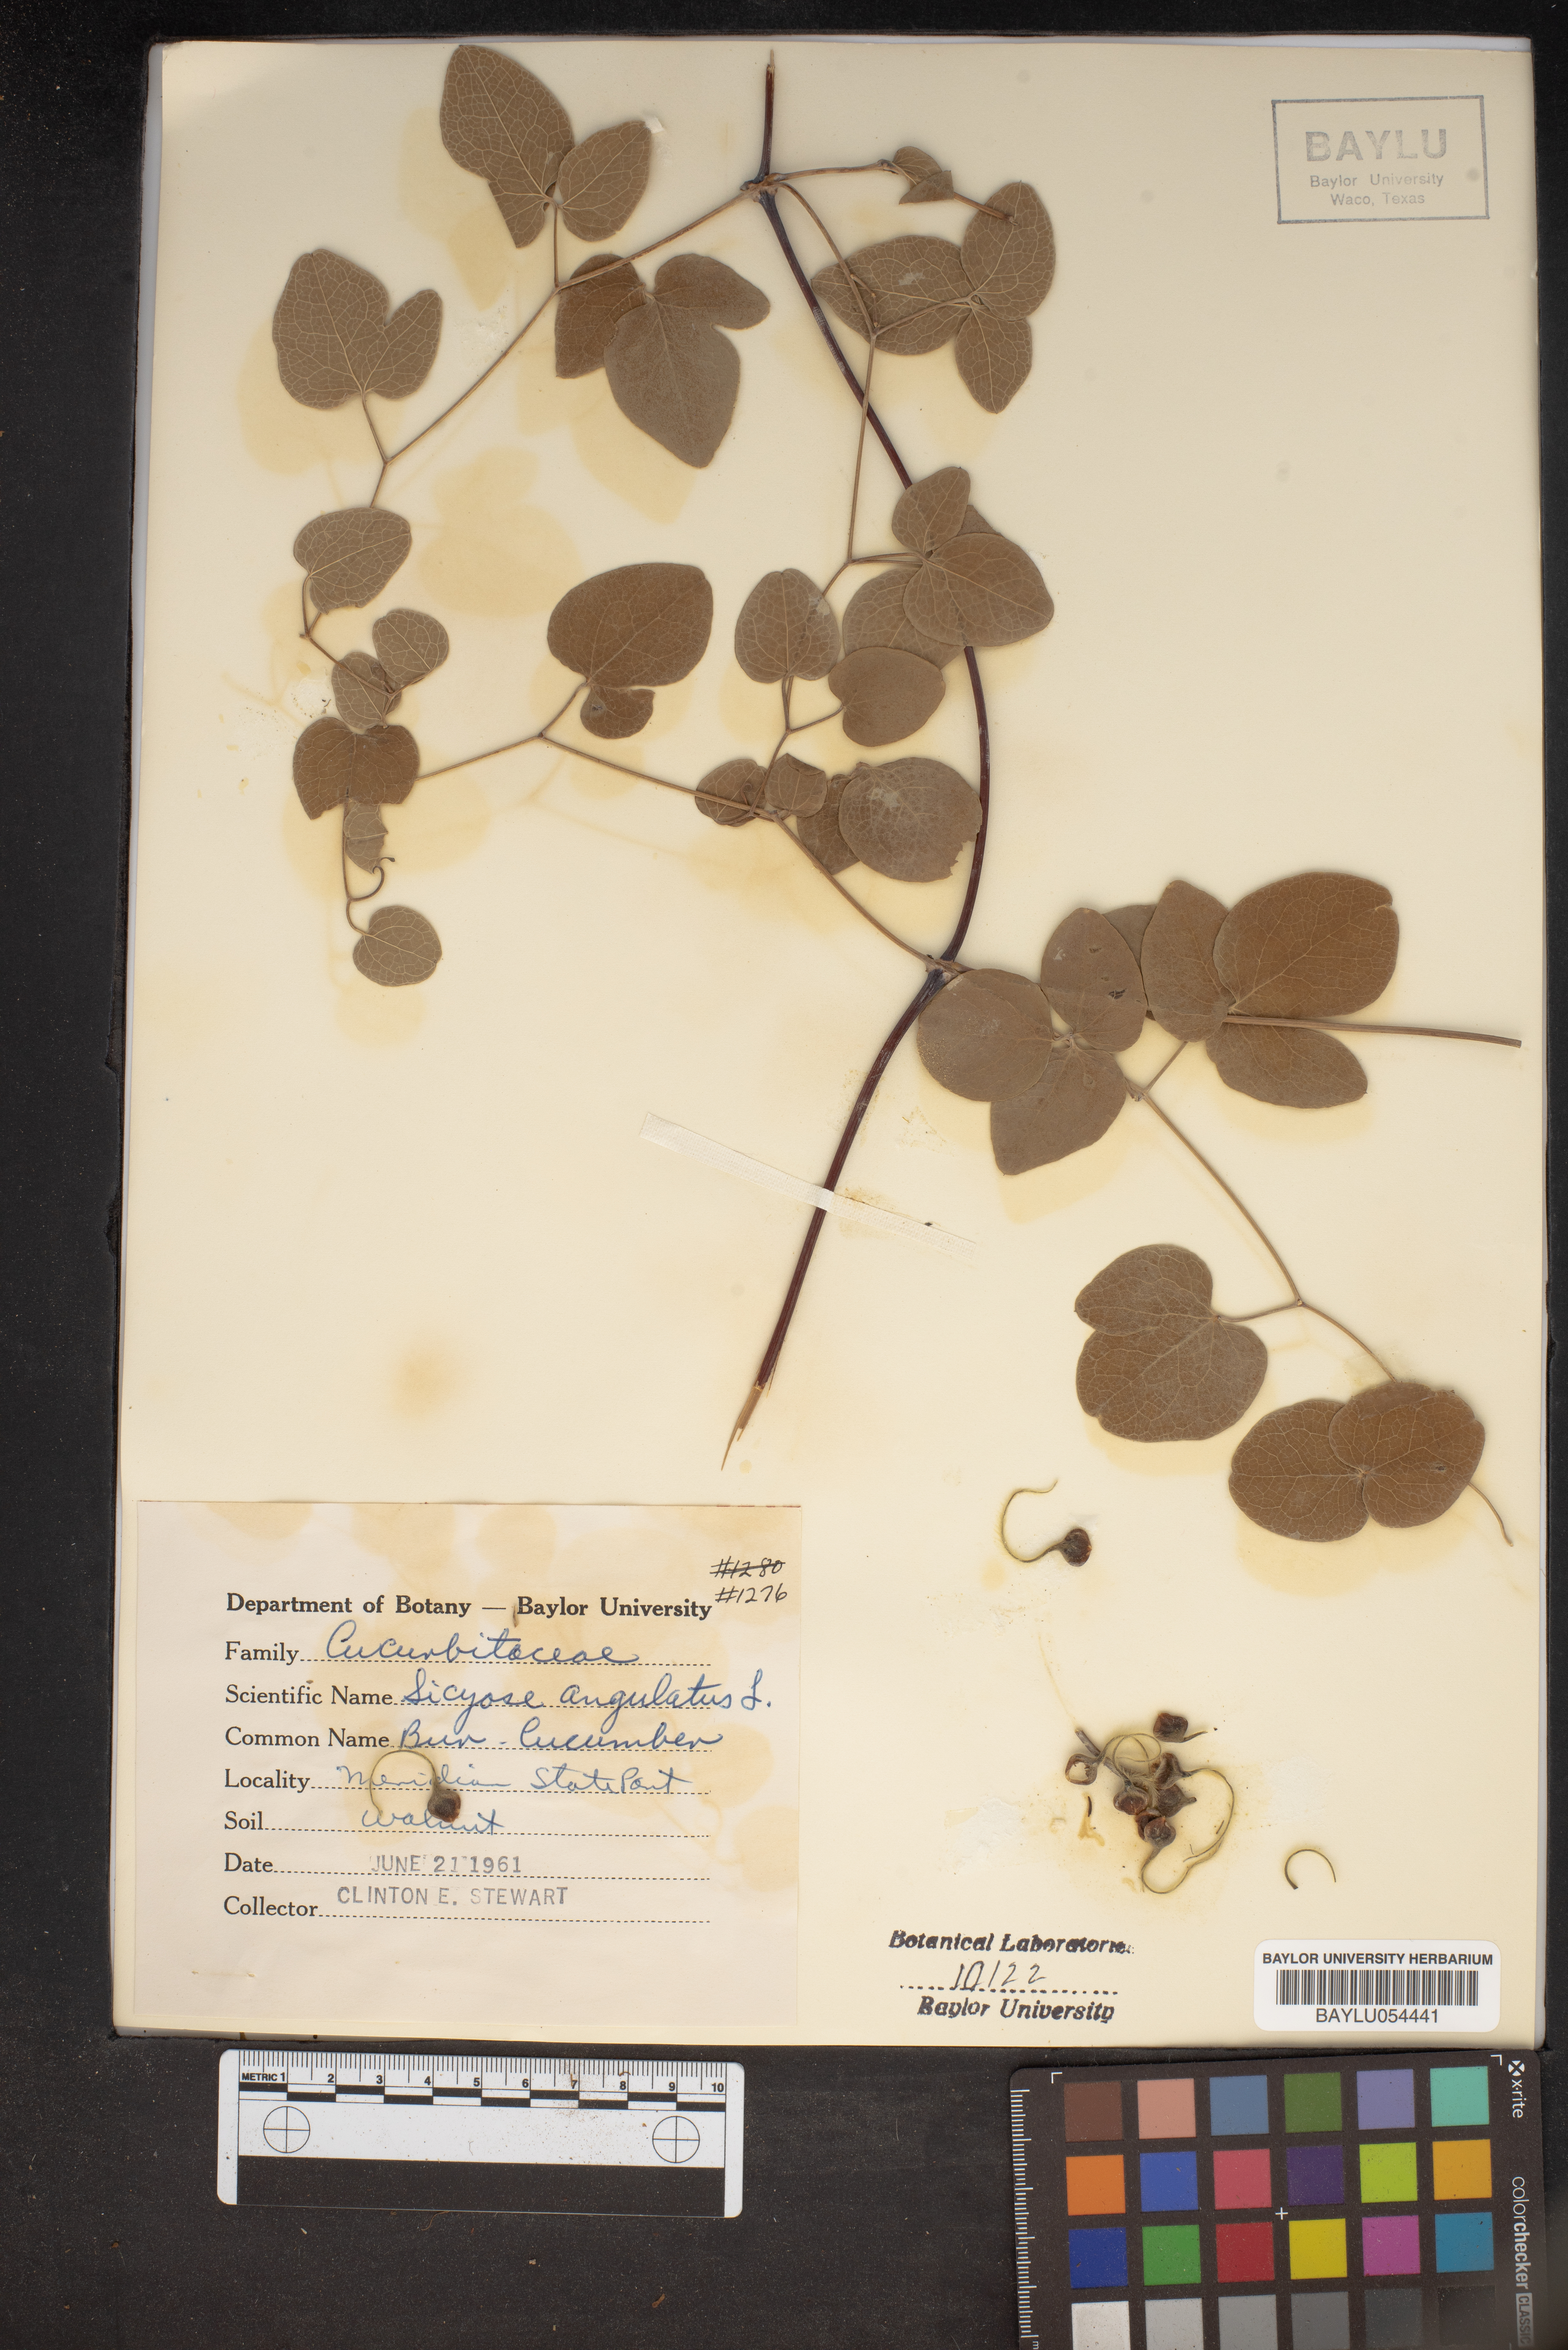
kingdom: Plantae
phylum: Tracheophyta
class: Magnoliopsida
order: Cucurbitales
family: Cucurbitaceae
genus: Sicyos
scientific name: Sicyos angulatus
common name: Angled burr cucumber
